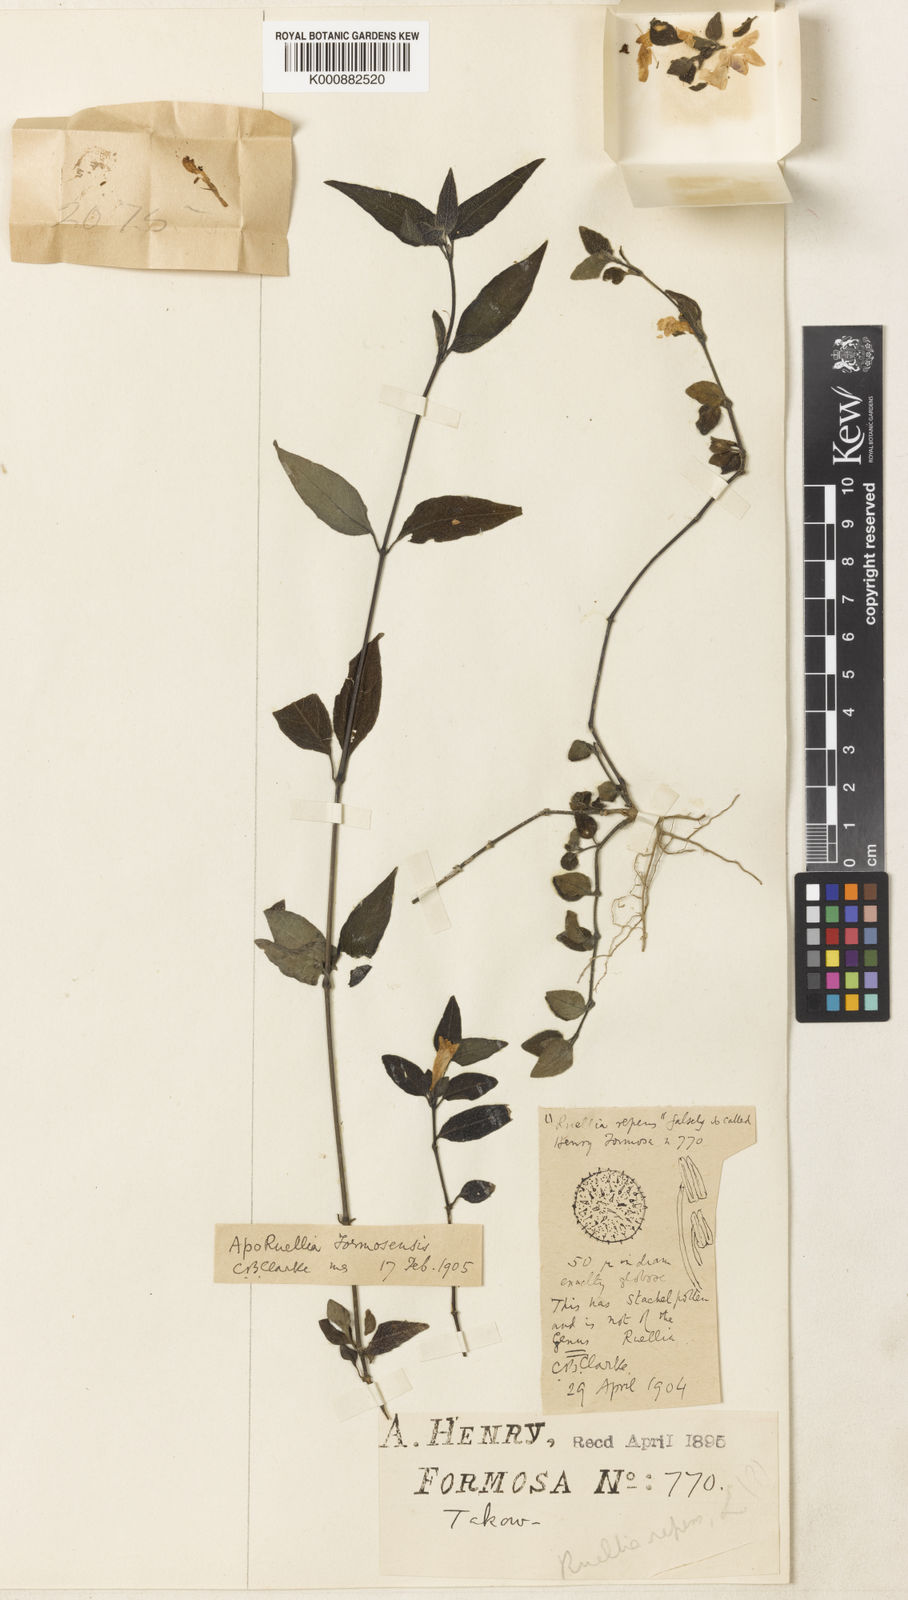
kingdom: Plantae
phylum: Tracheophyta
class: Magnoliopsida
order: Lamiales
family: Acanthaceae
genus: Ruellia
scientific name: Ruellia
